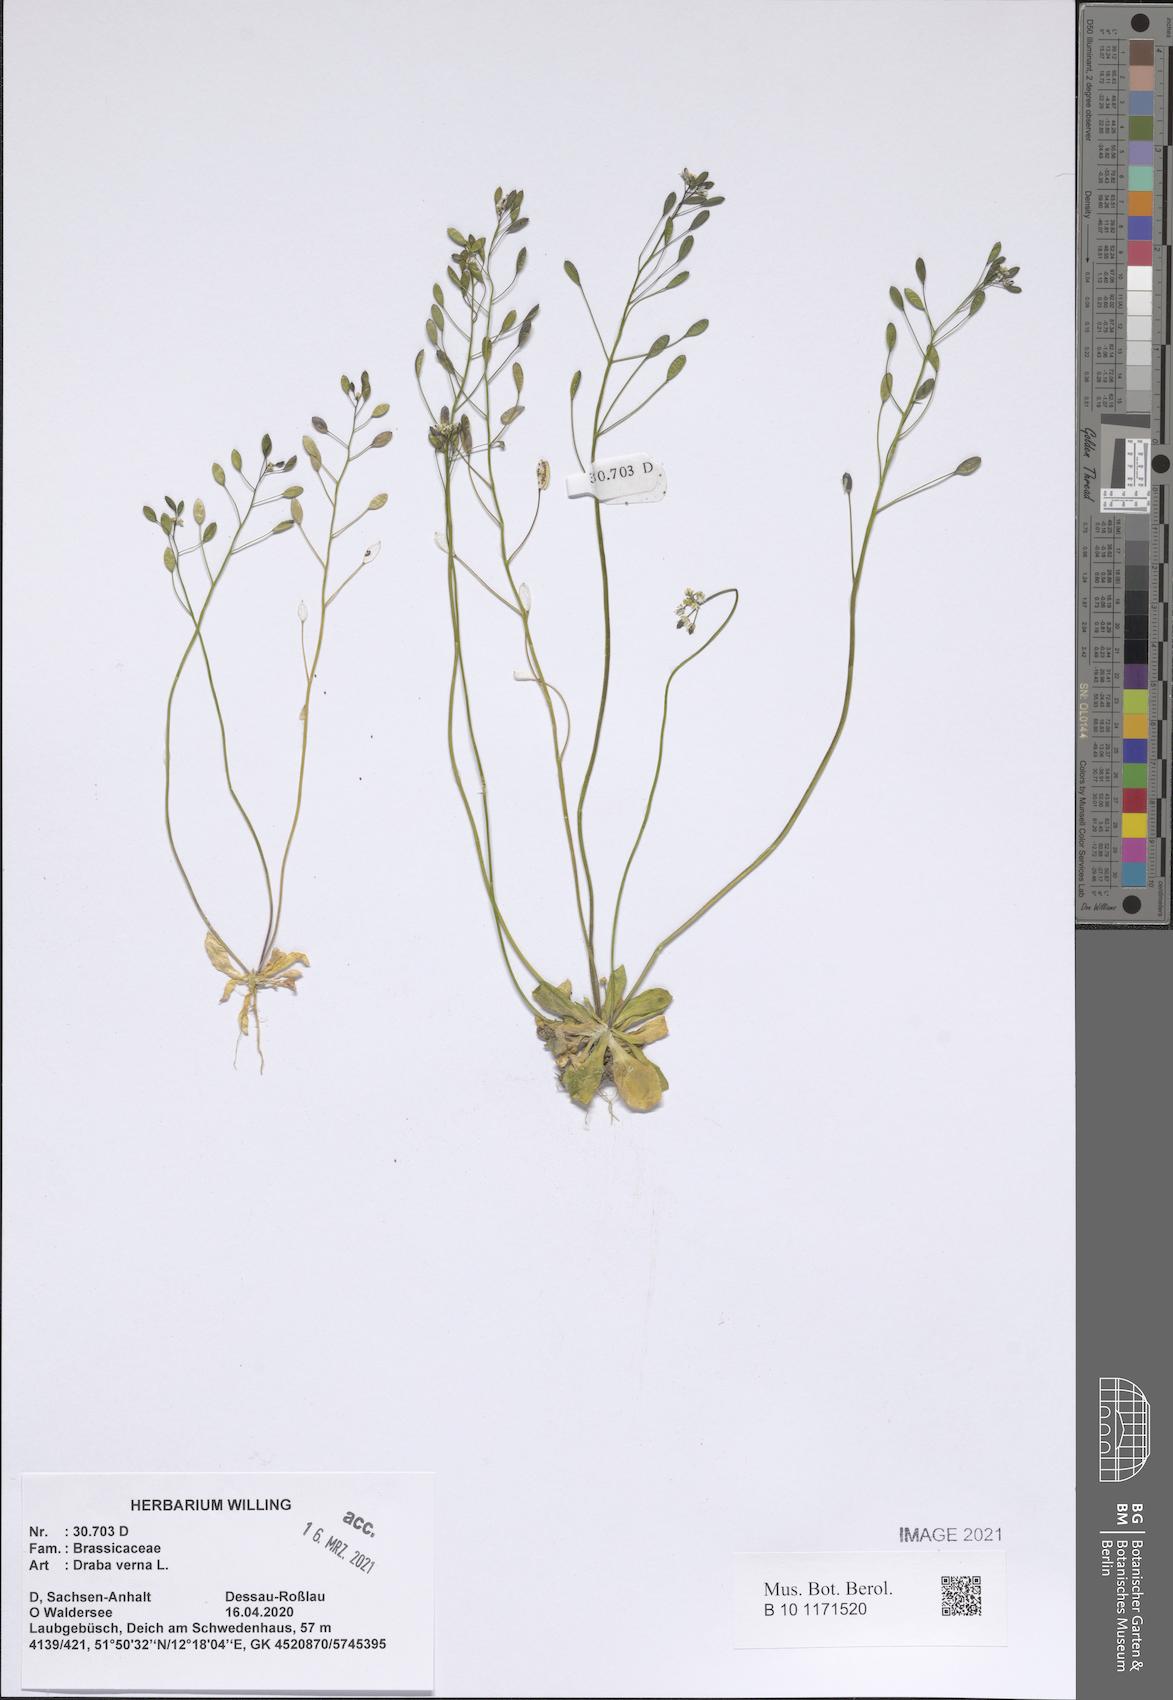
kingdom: Plantae
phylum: Tracheophyta
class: Magnoliopsida
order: Brassicales
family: Brassicaceae
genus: Draba
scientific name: Draba verna
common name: Spring draba
